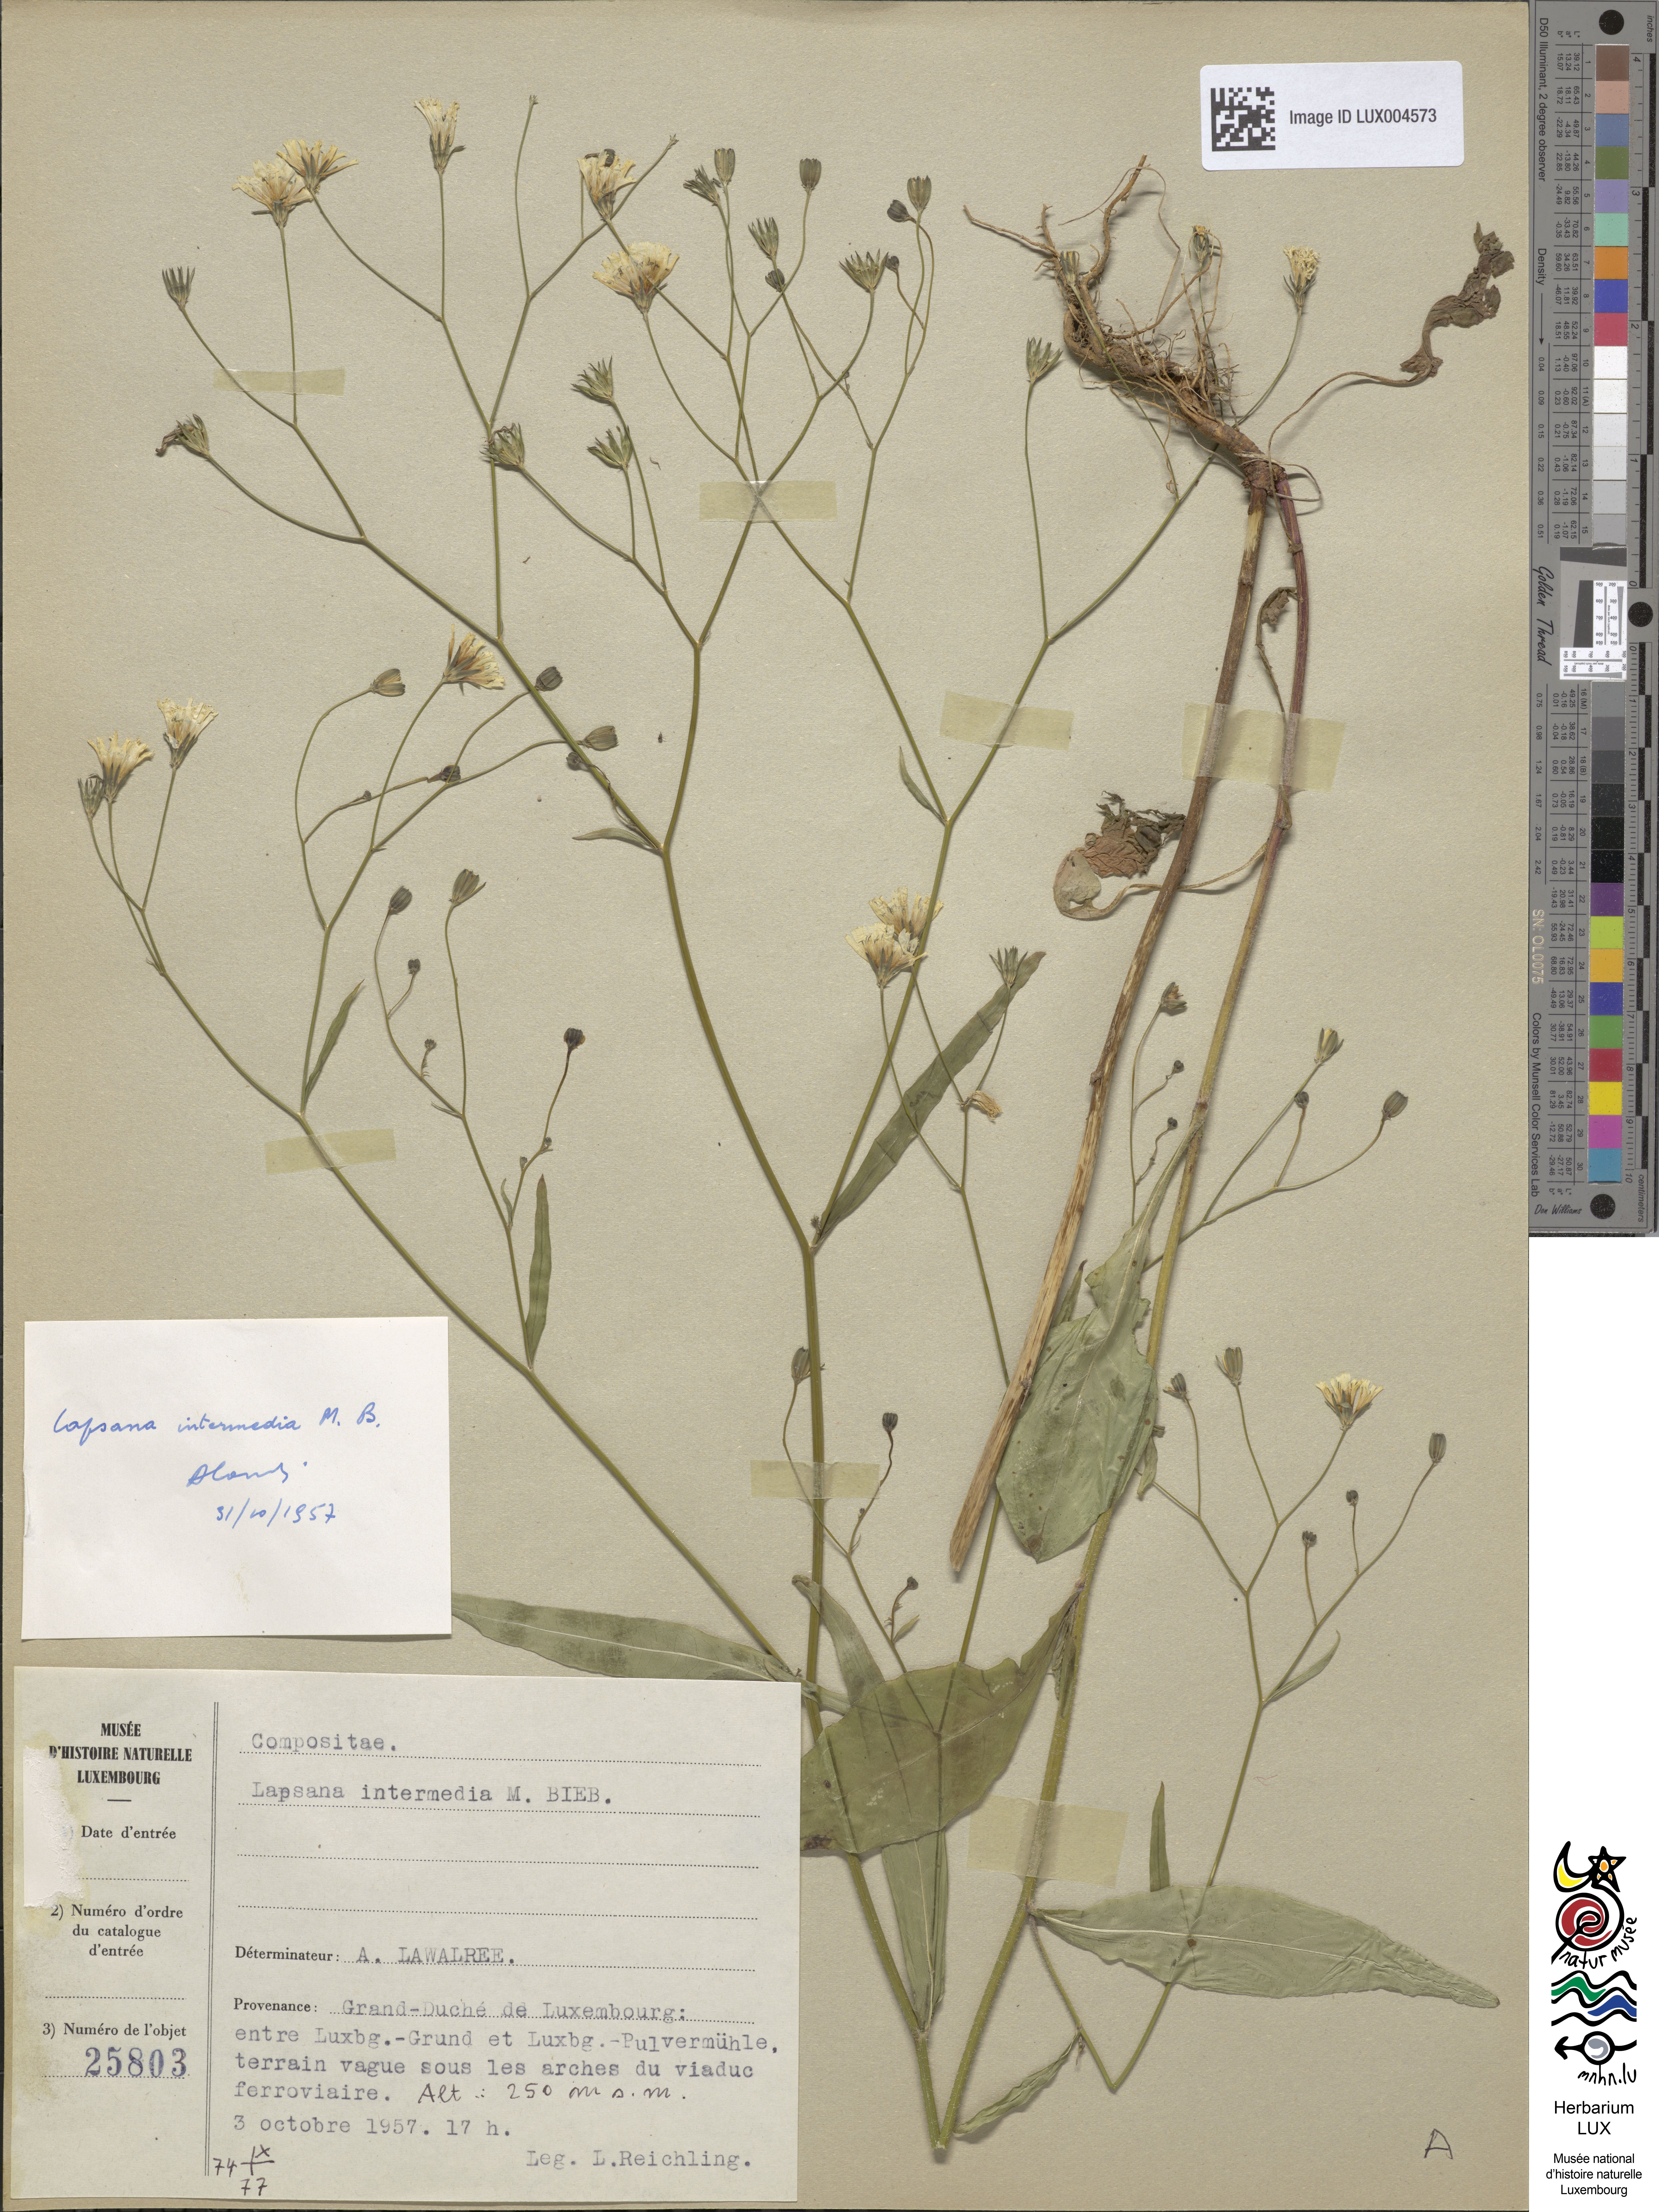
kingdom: Plantae
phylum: Tracheophyta
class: Magnoliopsida
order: Asterales
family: Asteraceae
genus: Lapsana
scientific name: Lapsana communis
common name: Nipplewort
